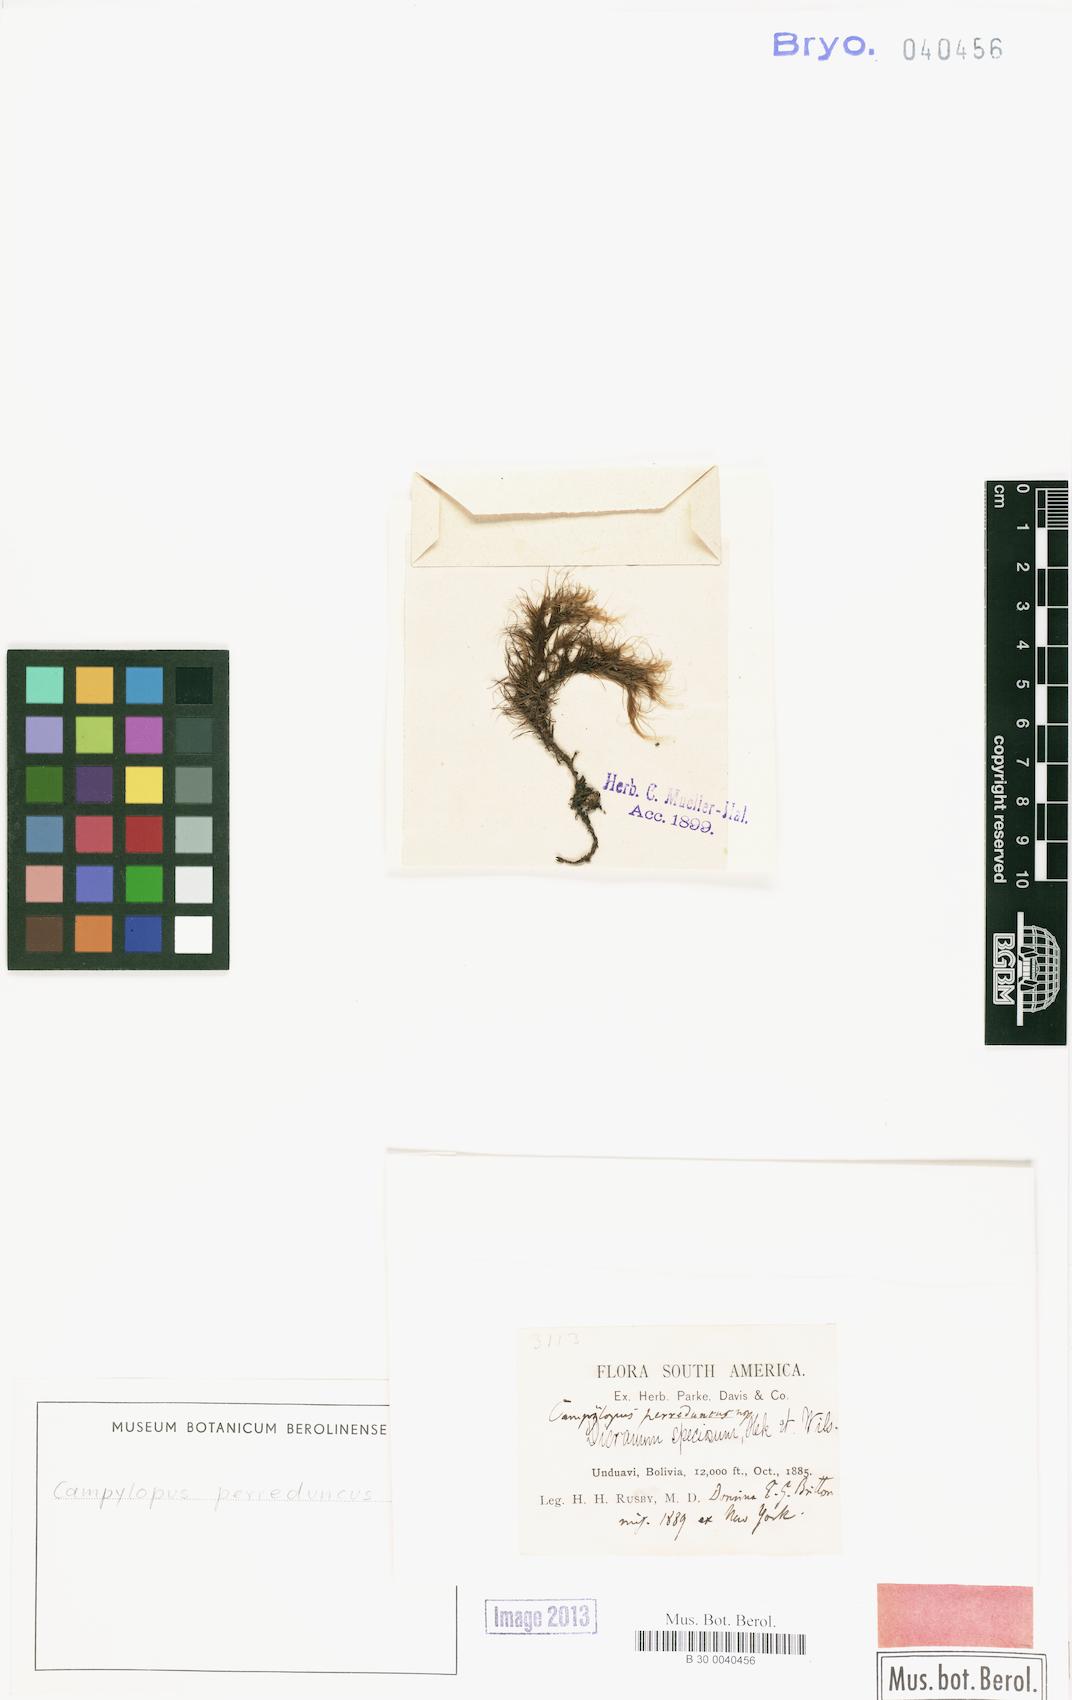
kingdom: Plantae
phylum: Bryophyta
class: Bryopsida
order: Dicranales
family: Dicranaceae
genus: Chorisodontium
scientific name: Chorisodontium speciosum
